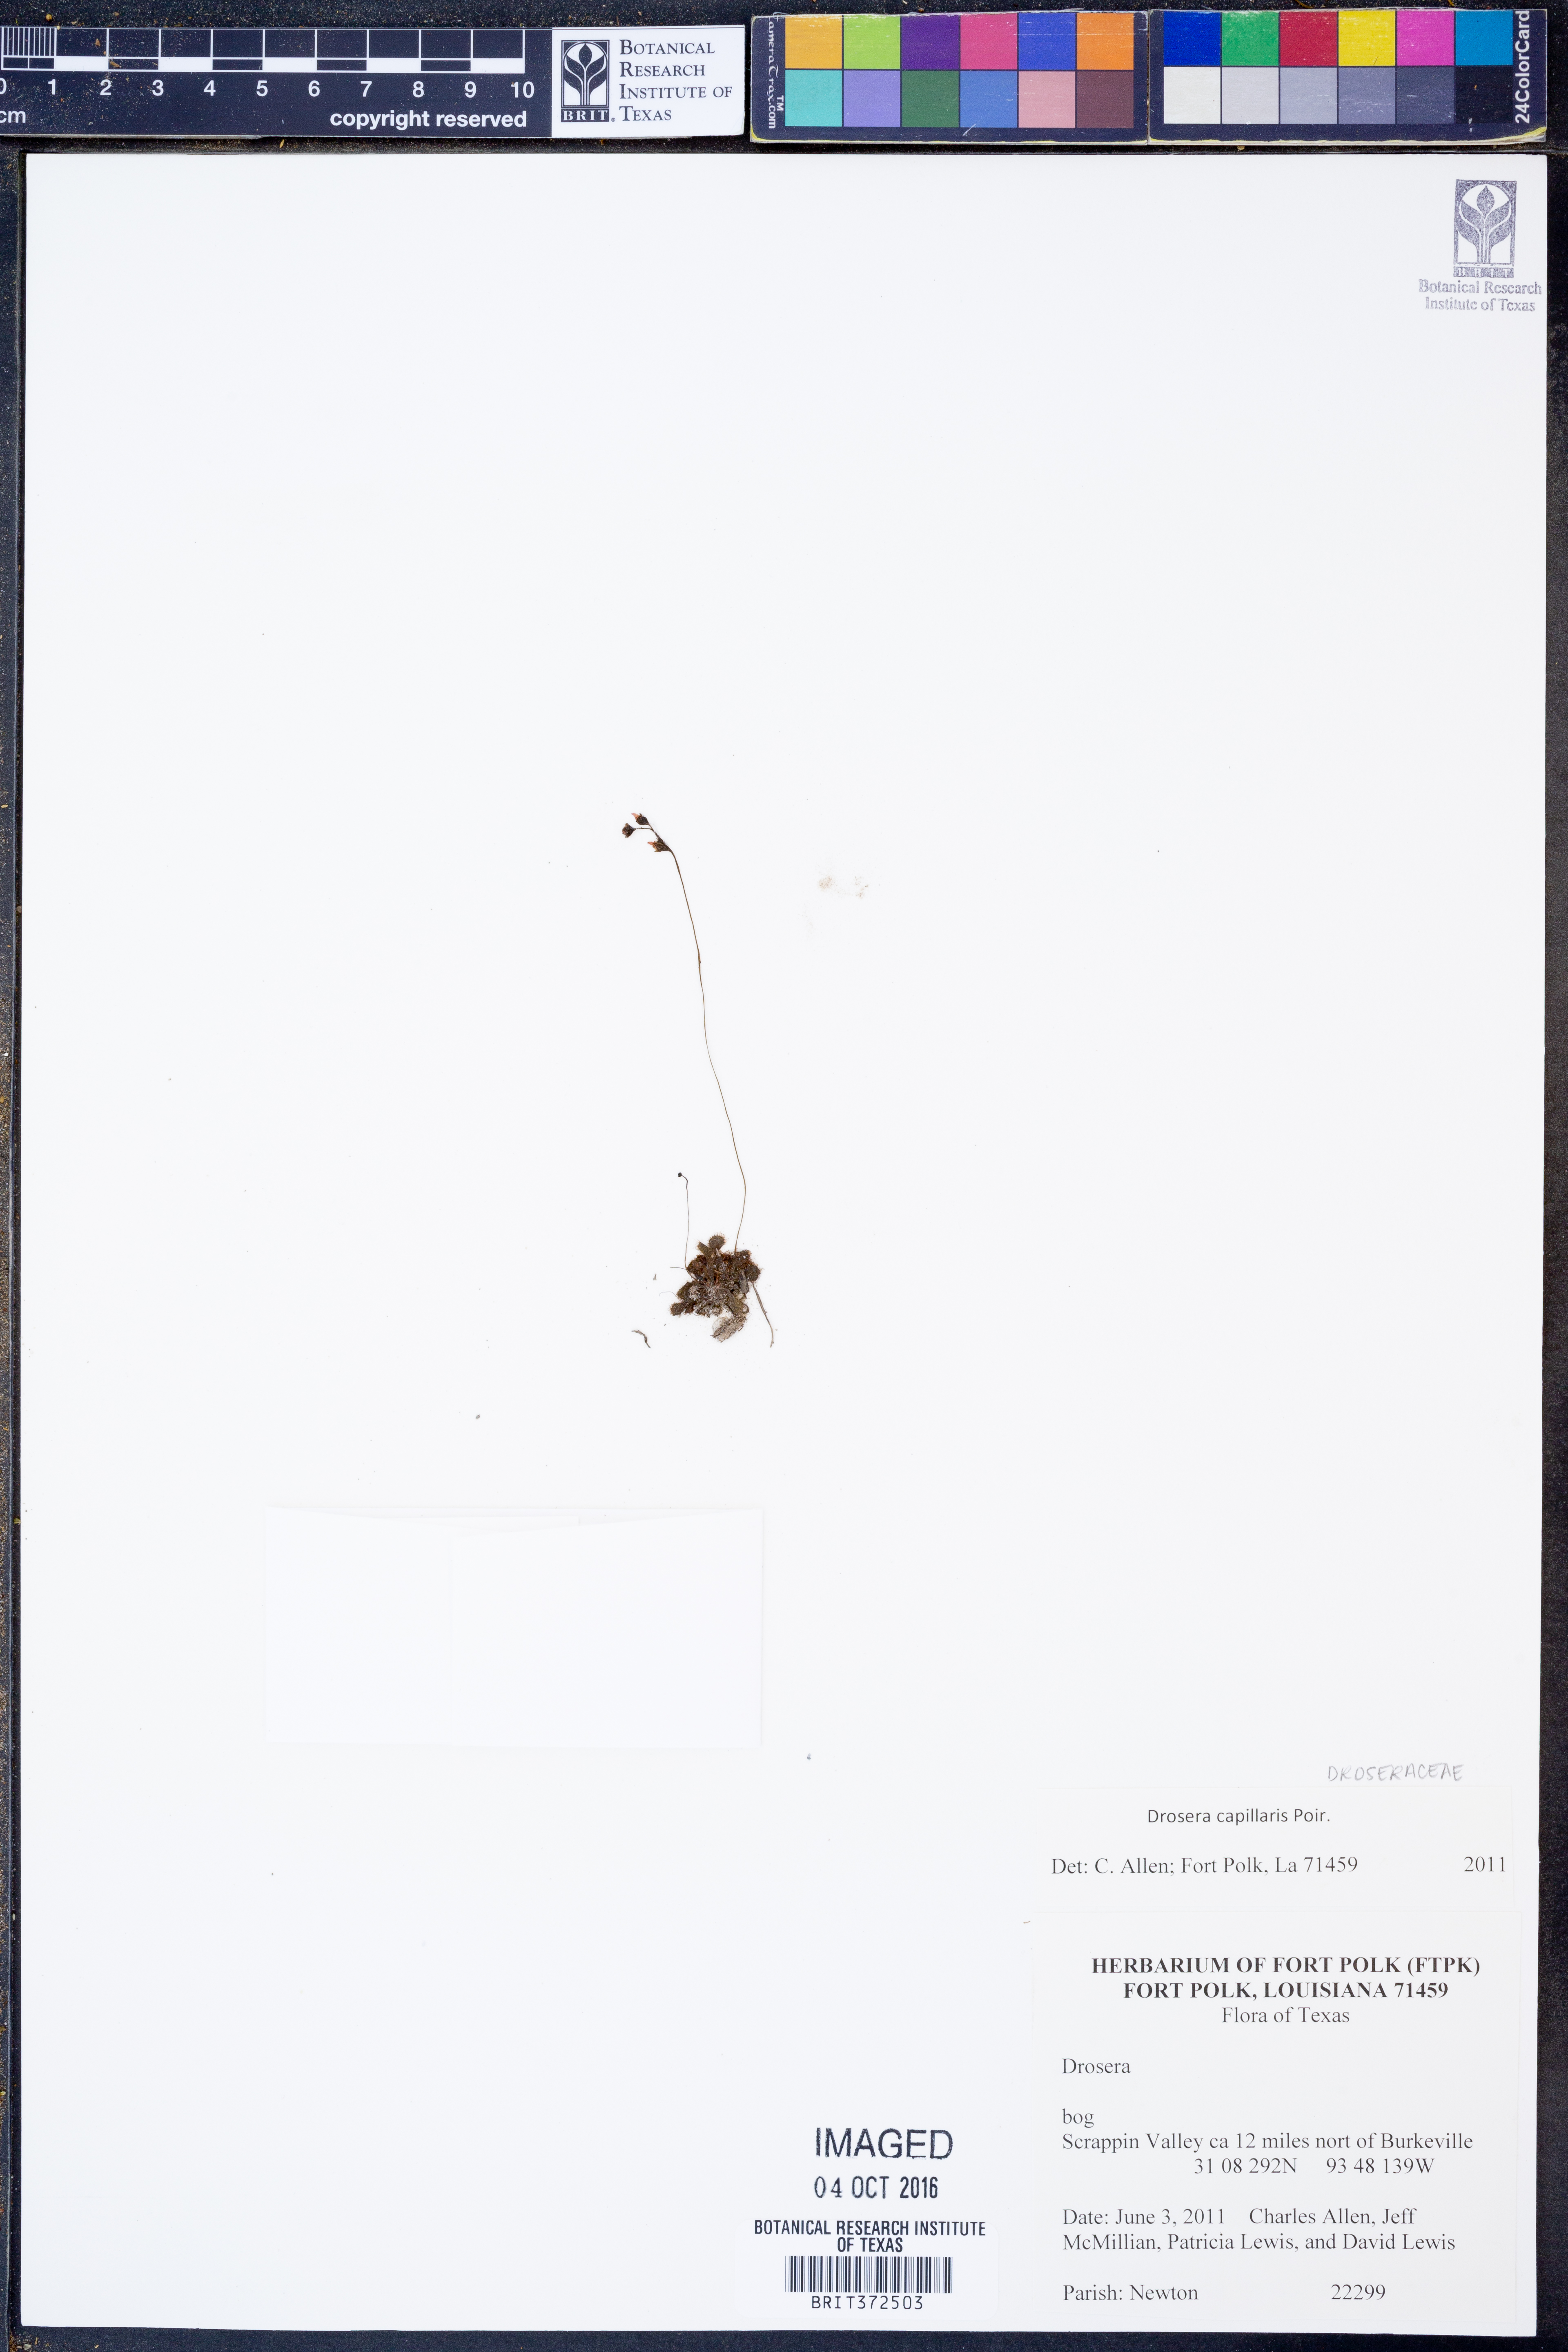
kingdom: Plantae
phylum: Tracheophyta
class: Magnoliopsida
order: Caryophyllales
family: Droseraceae
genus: Drosera
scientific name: Drosera capillaris
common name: Pink sundew
